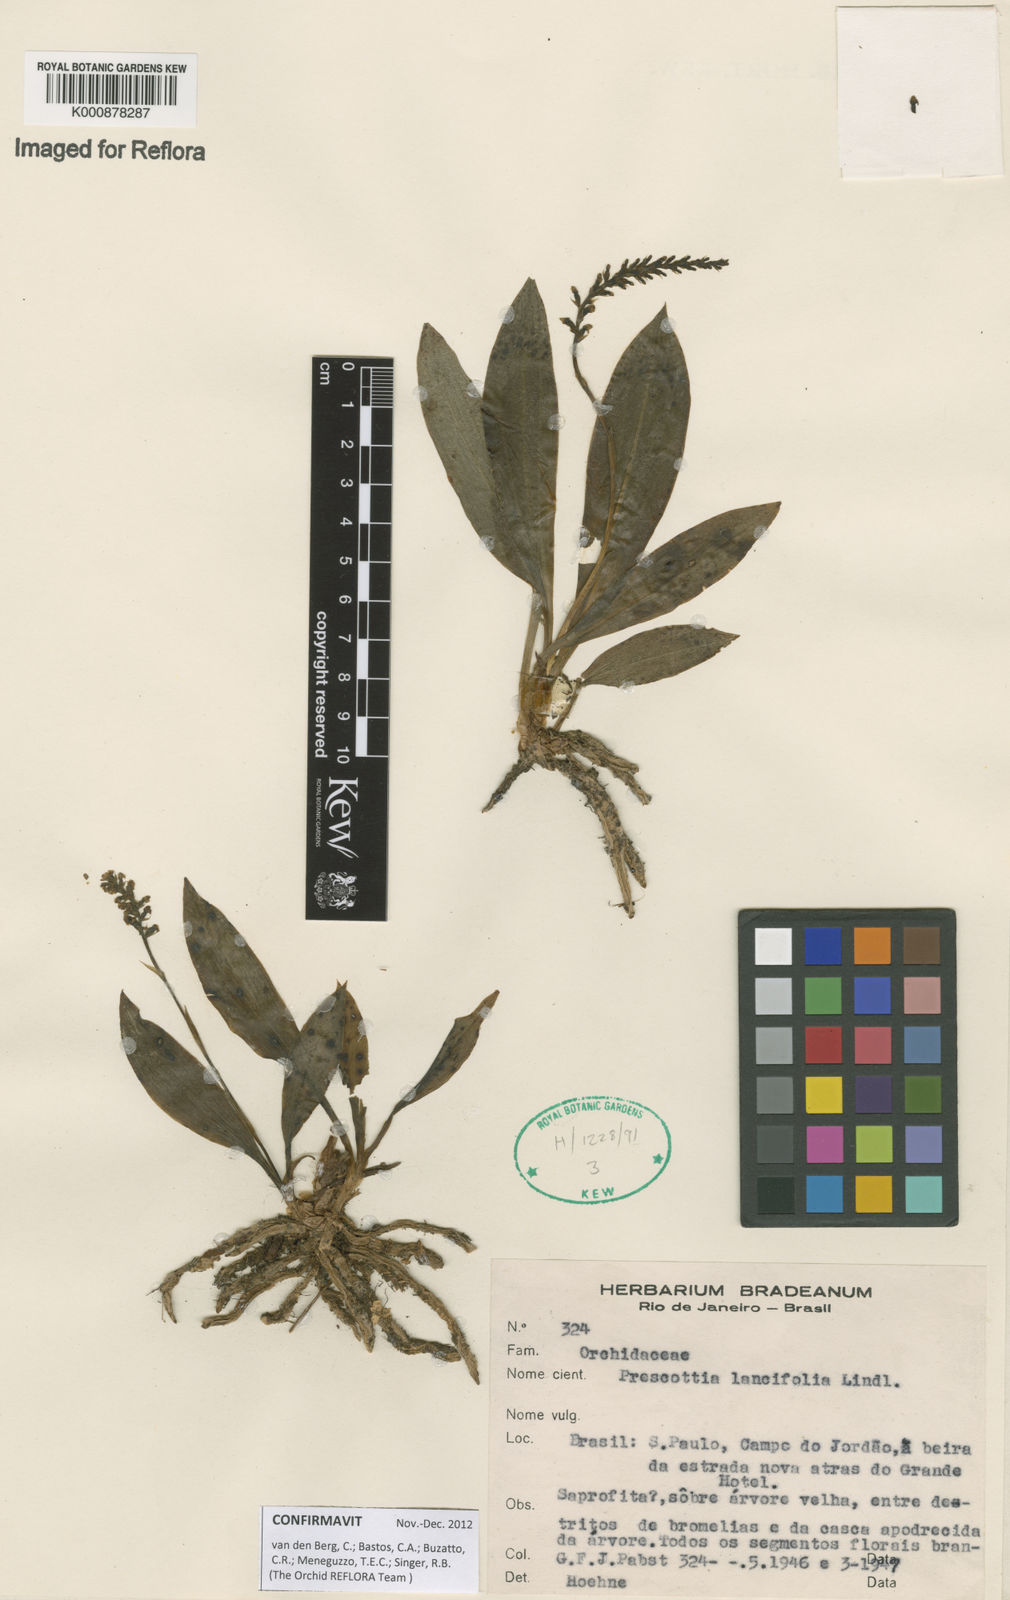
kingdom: Plantae
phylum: Tracheophyta
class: Liliopsida
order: Asparagales
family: Orchidaceae
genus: Prescottia
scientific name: Prescottia lancifolia
